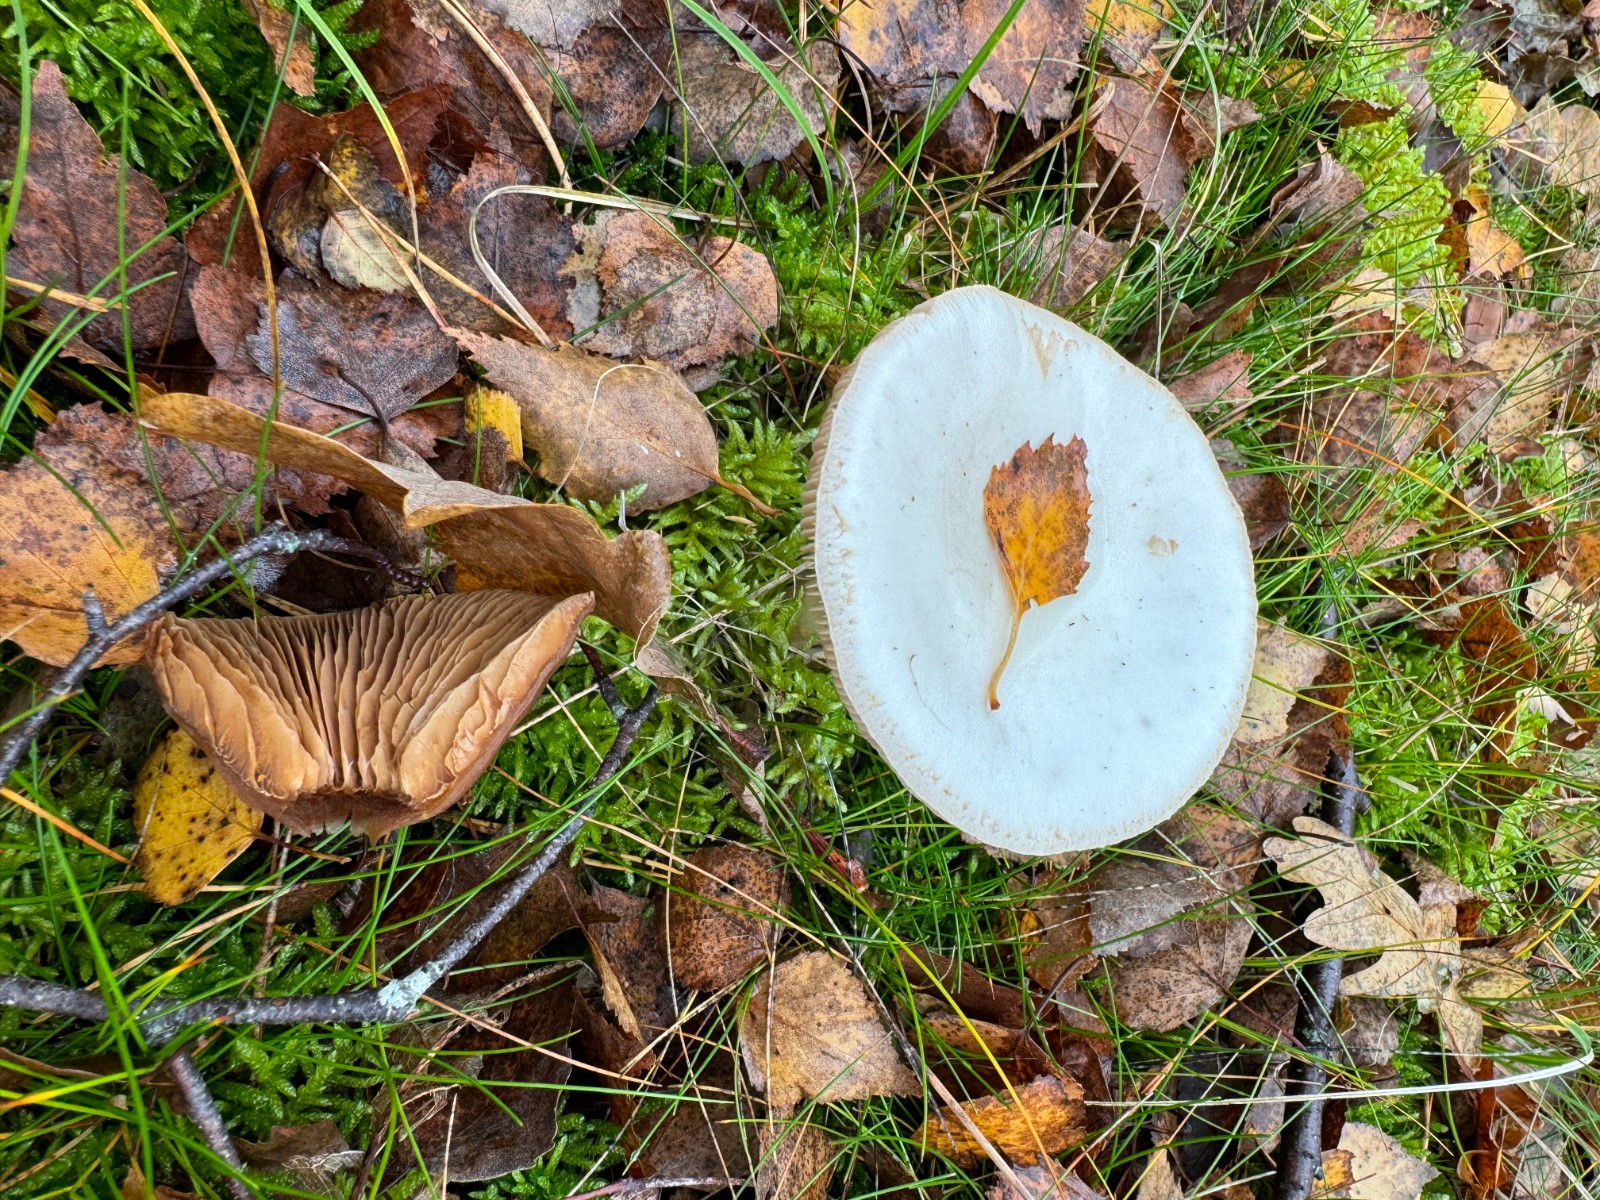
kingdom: Fungi
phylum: Basidiomycota
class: Agaricomycetes
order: Agaricales
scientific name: Agaricales
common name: champignonordenen
